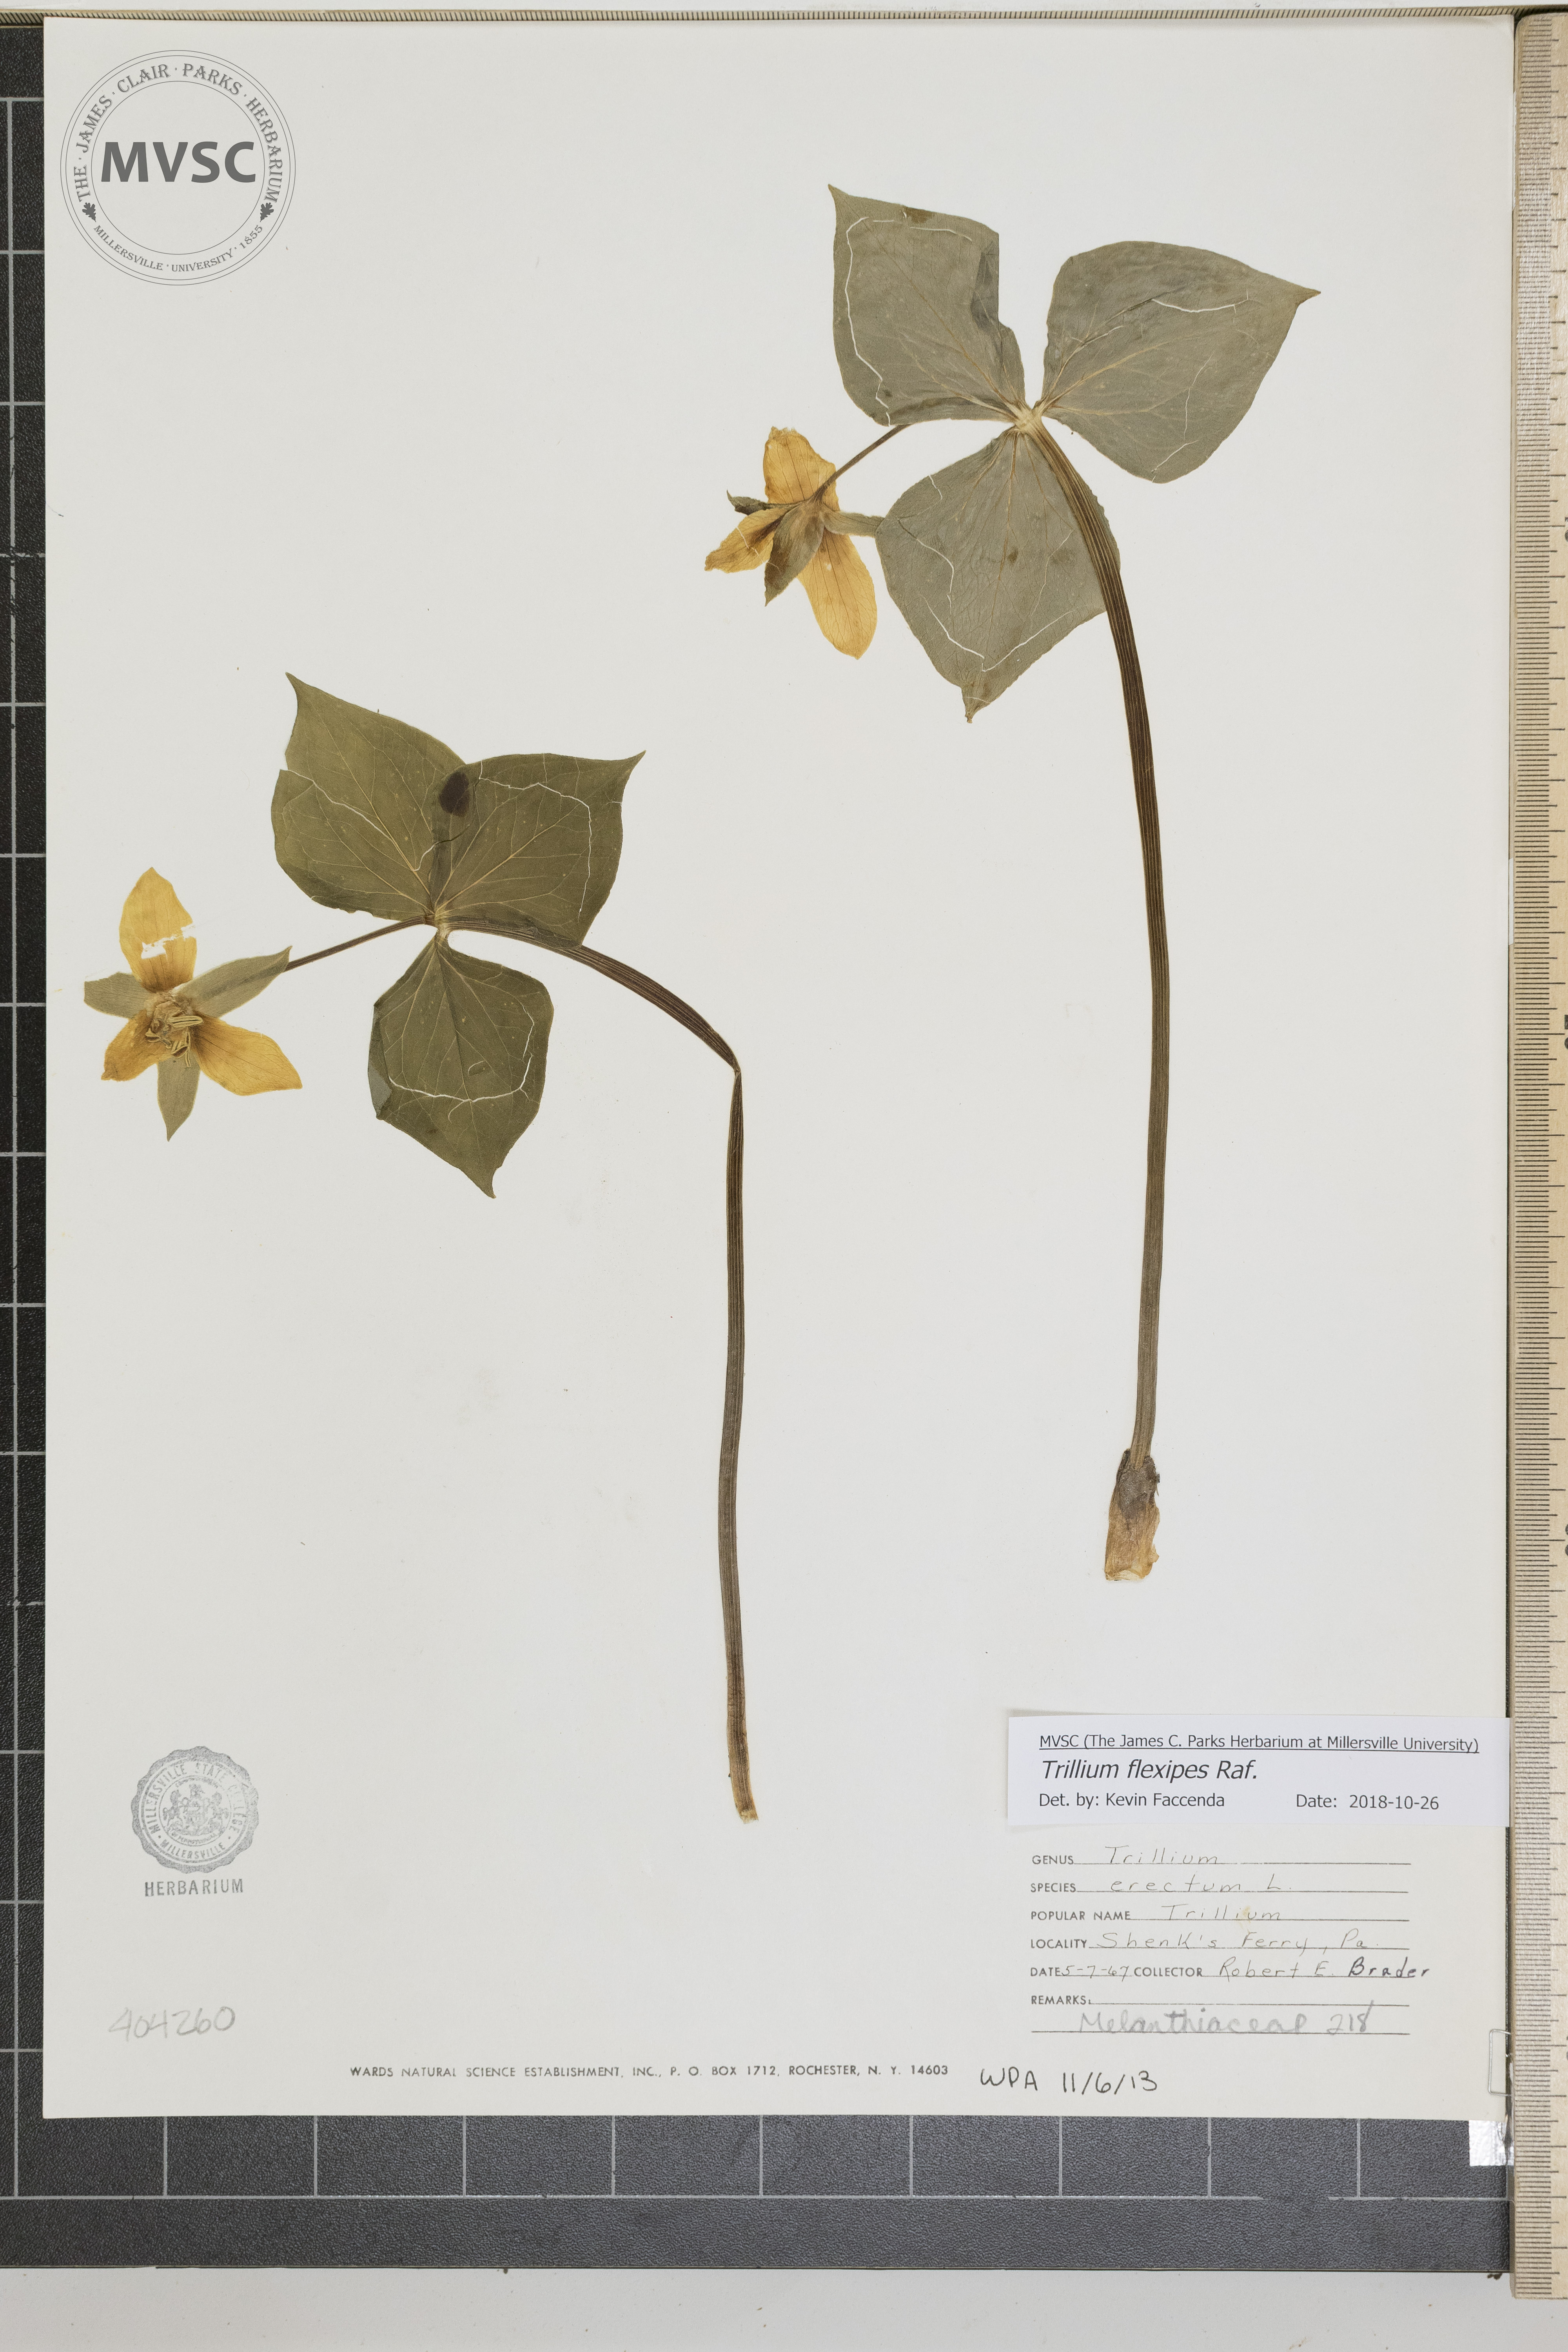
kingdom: Plantae
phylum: Tracheophyta
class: Liliopsida
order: Liliales
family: Melanthiaceae
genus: Trillium
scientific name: Trillium flexipes
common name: Trillium
